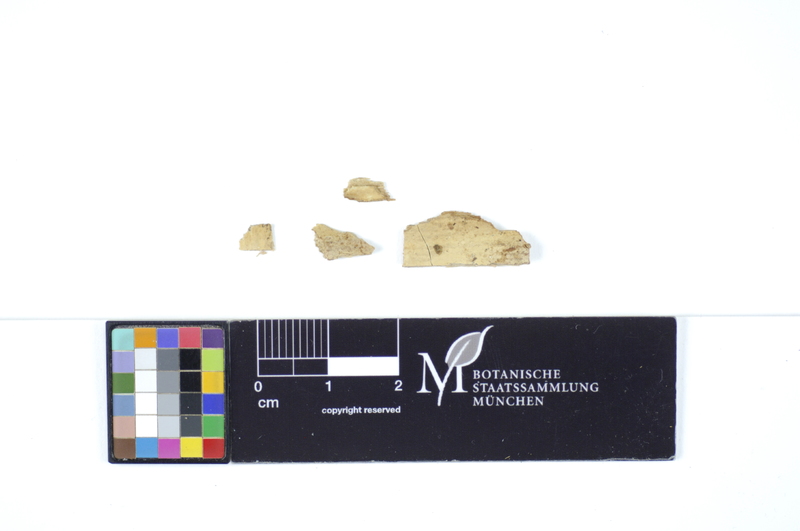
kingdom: Fungi
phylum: Basidiomycota
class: Agaricomycetes
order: Polyporales
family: Hyphodermataceae
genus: Hyphoderma
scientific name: Hyphoderma roseocremeum
